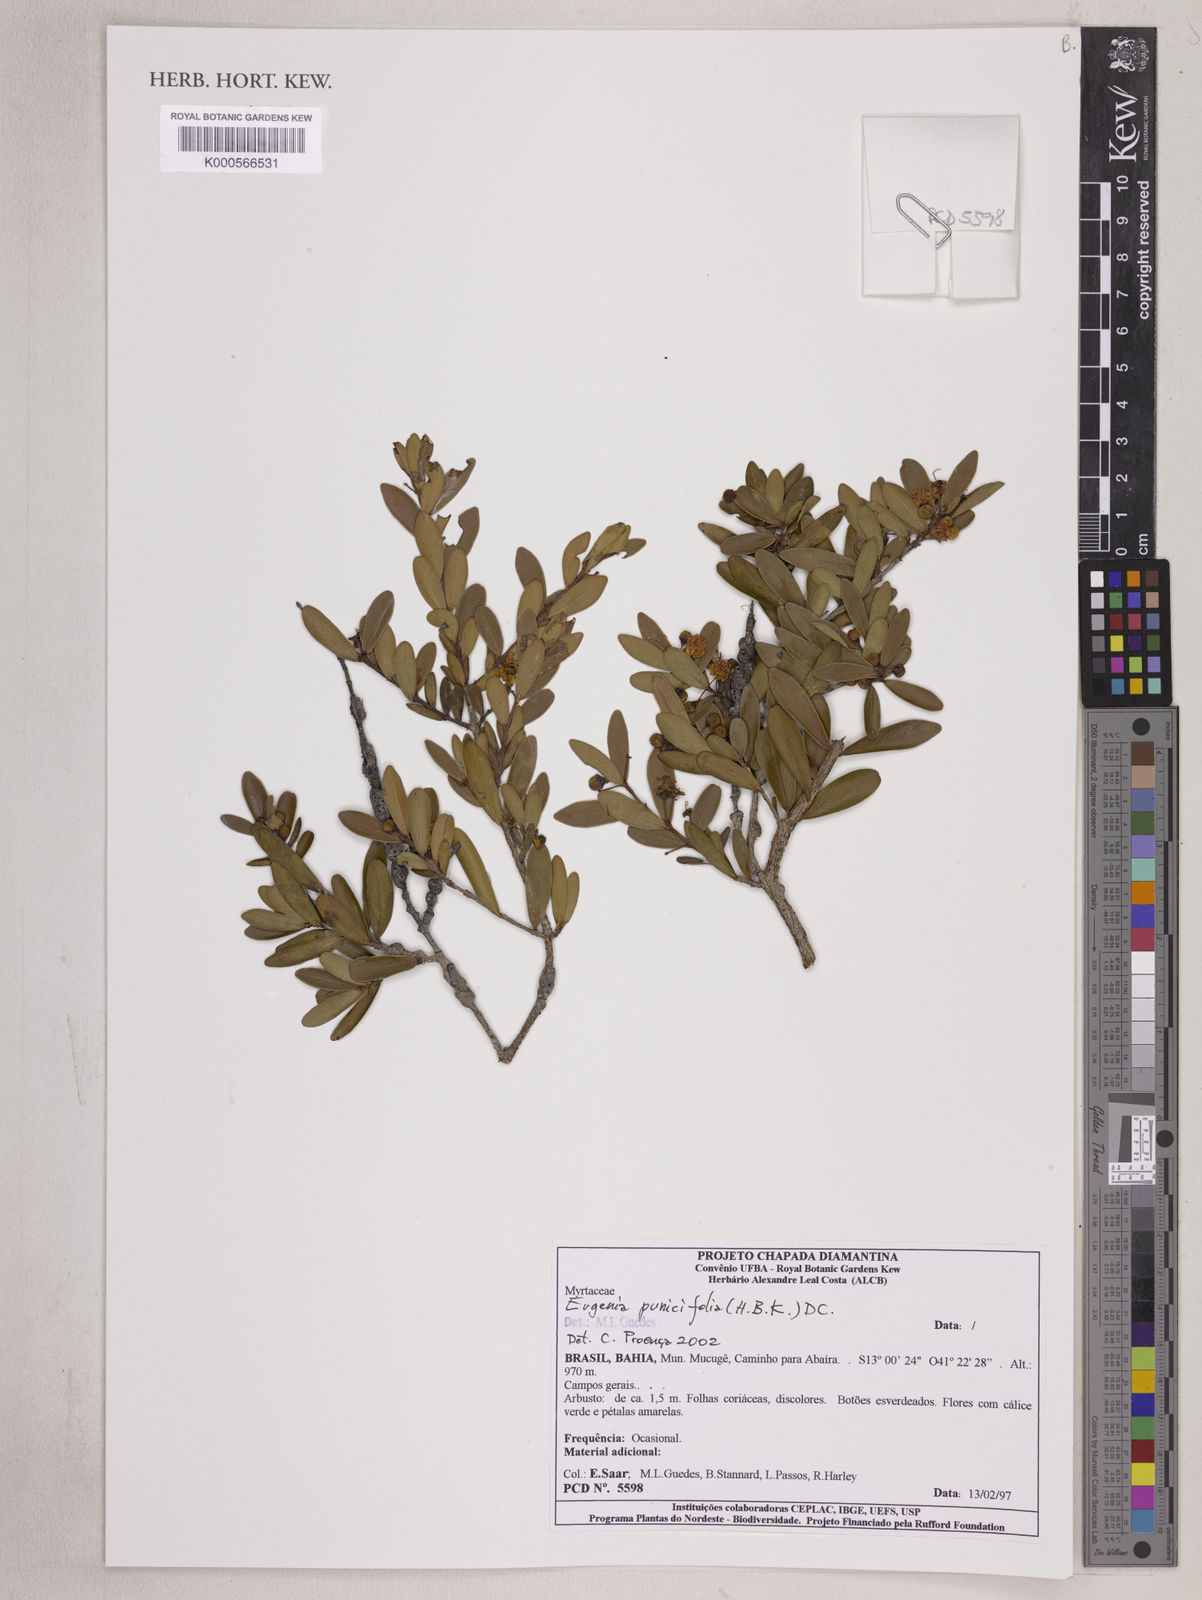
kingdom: Plantae
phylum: Tracheophyta
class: Magnoliopsida
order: Myrtales
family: Myrtaceae
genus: Eugenia
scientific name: Eugenia punicifolia
